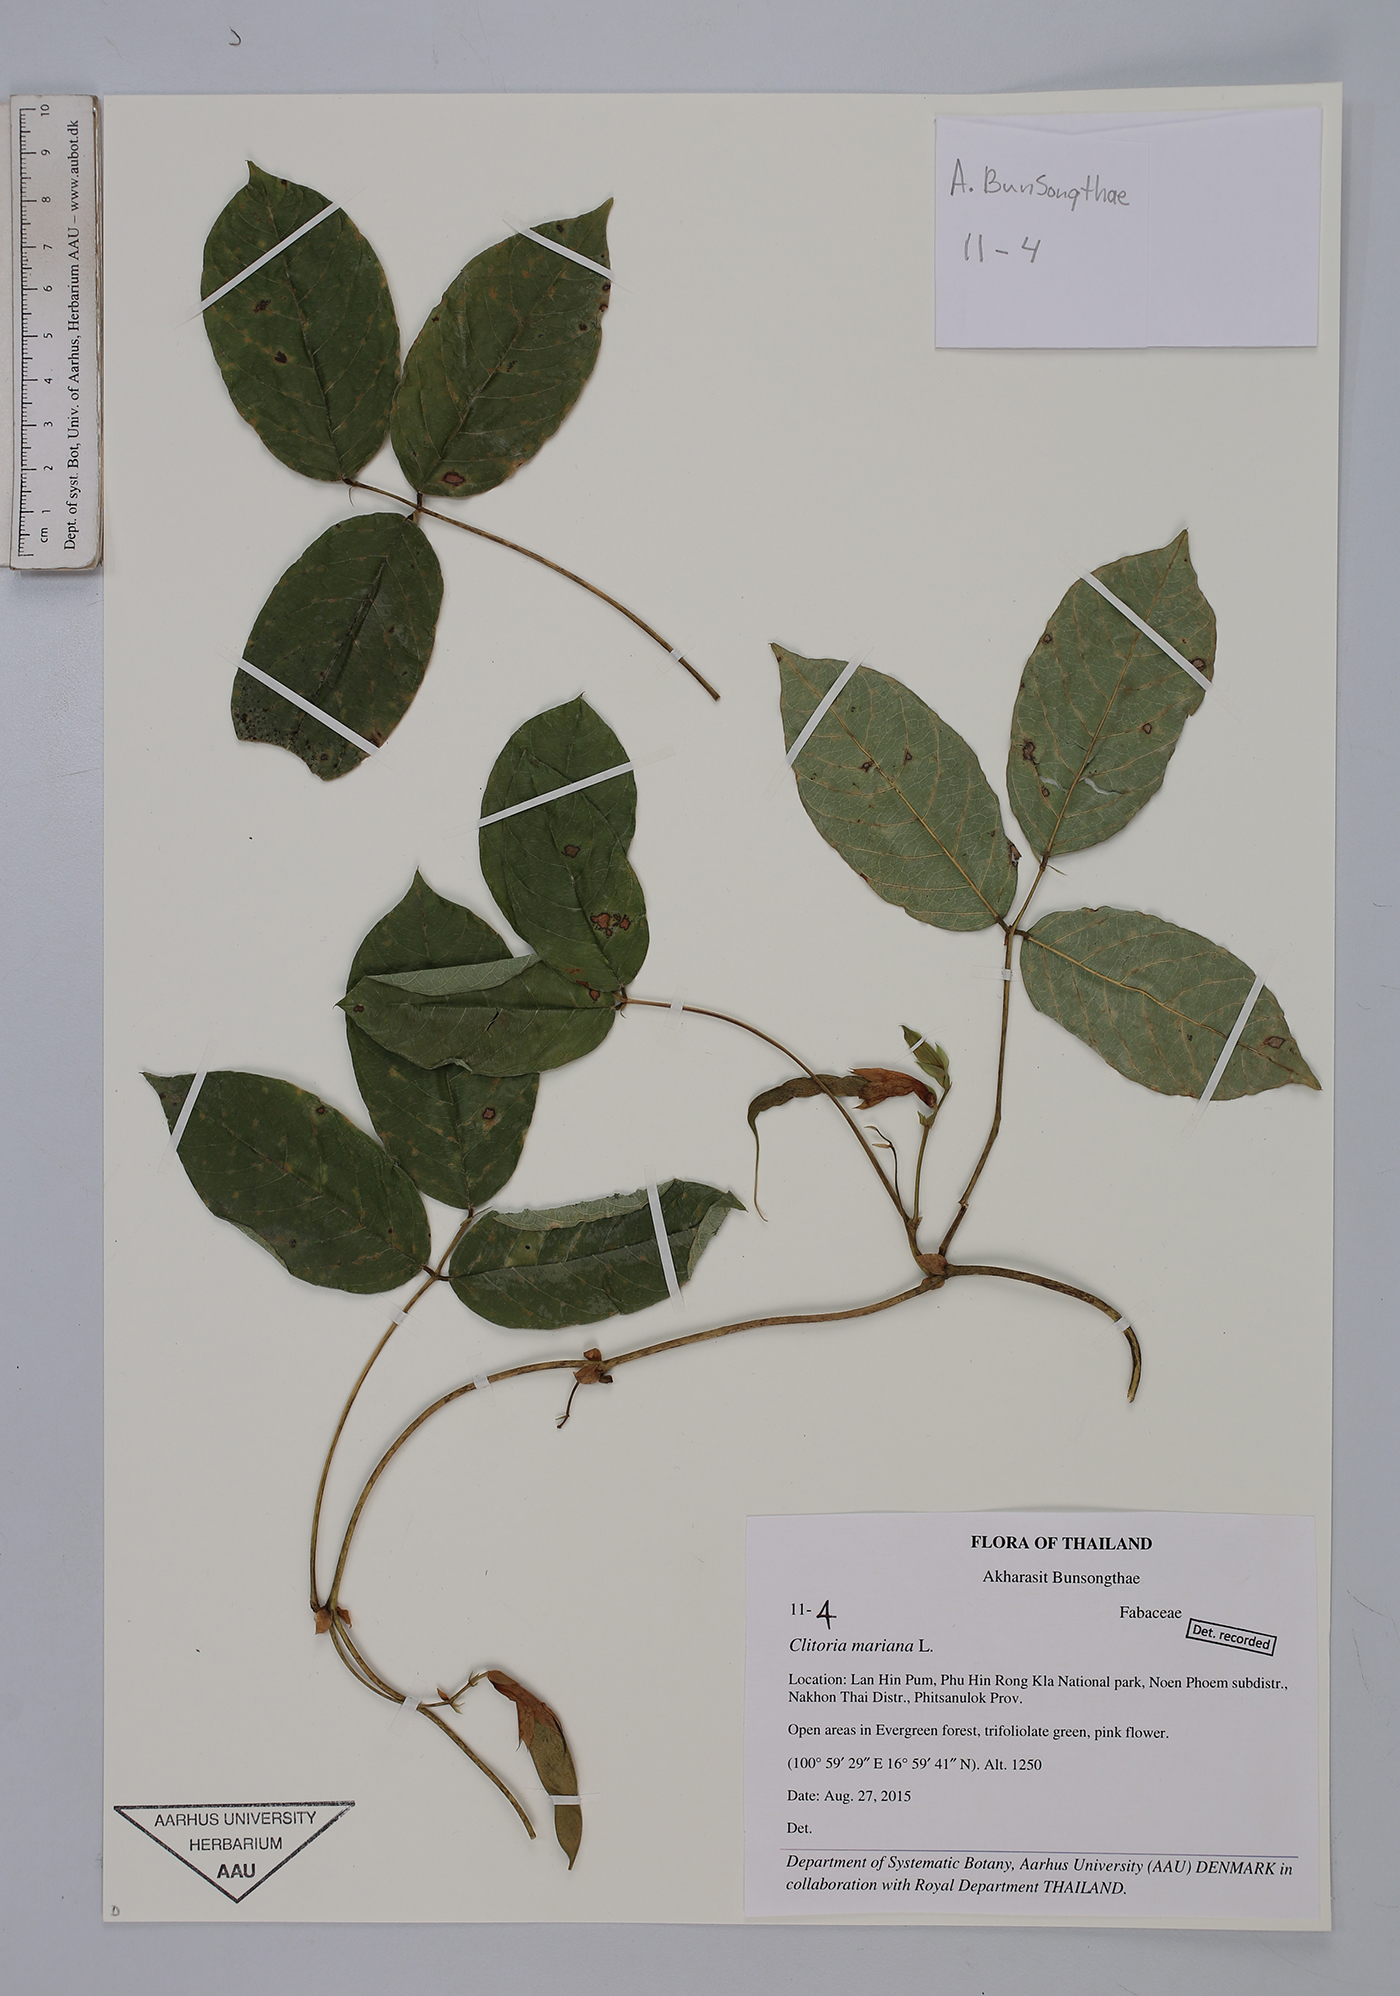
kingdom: Plantae
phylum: Tracheophyta
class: Magnoliopsida
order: Fabales
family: Fabaceae
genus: Clitoria
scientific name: Clitoria mariana
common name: Butterfly-pea
